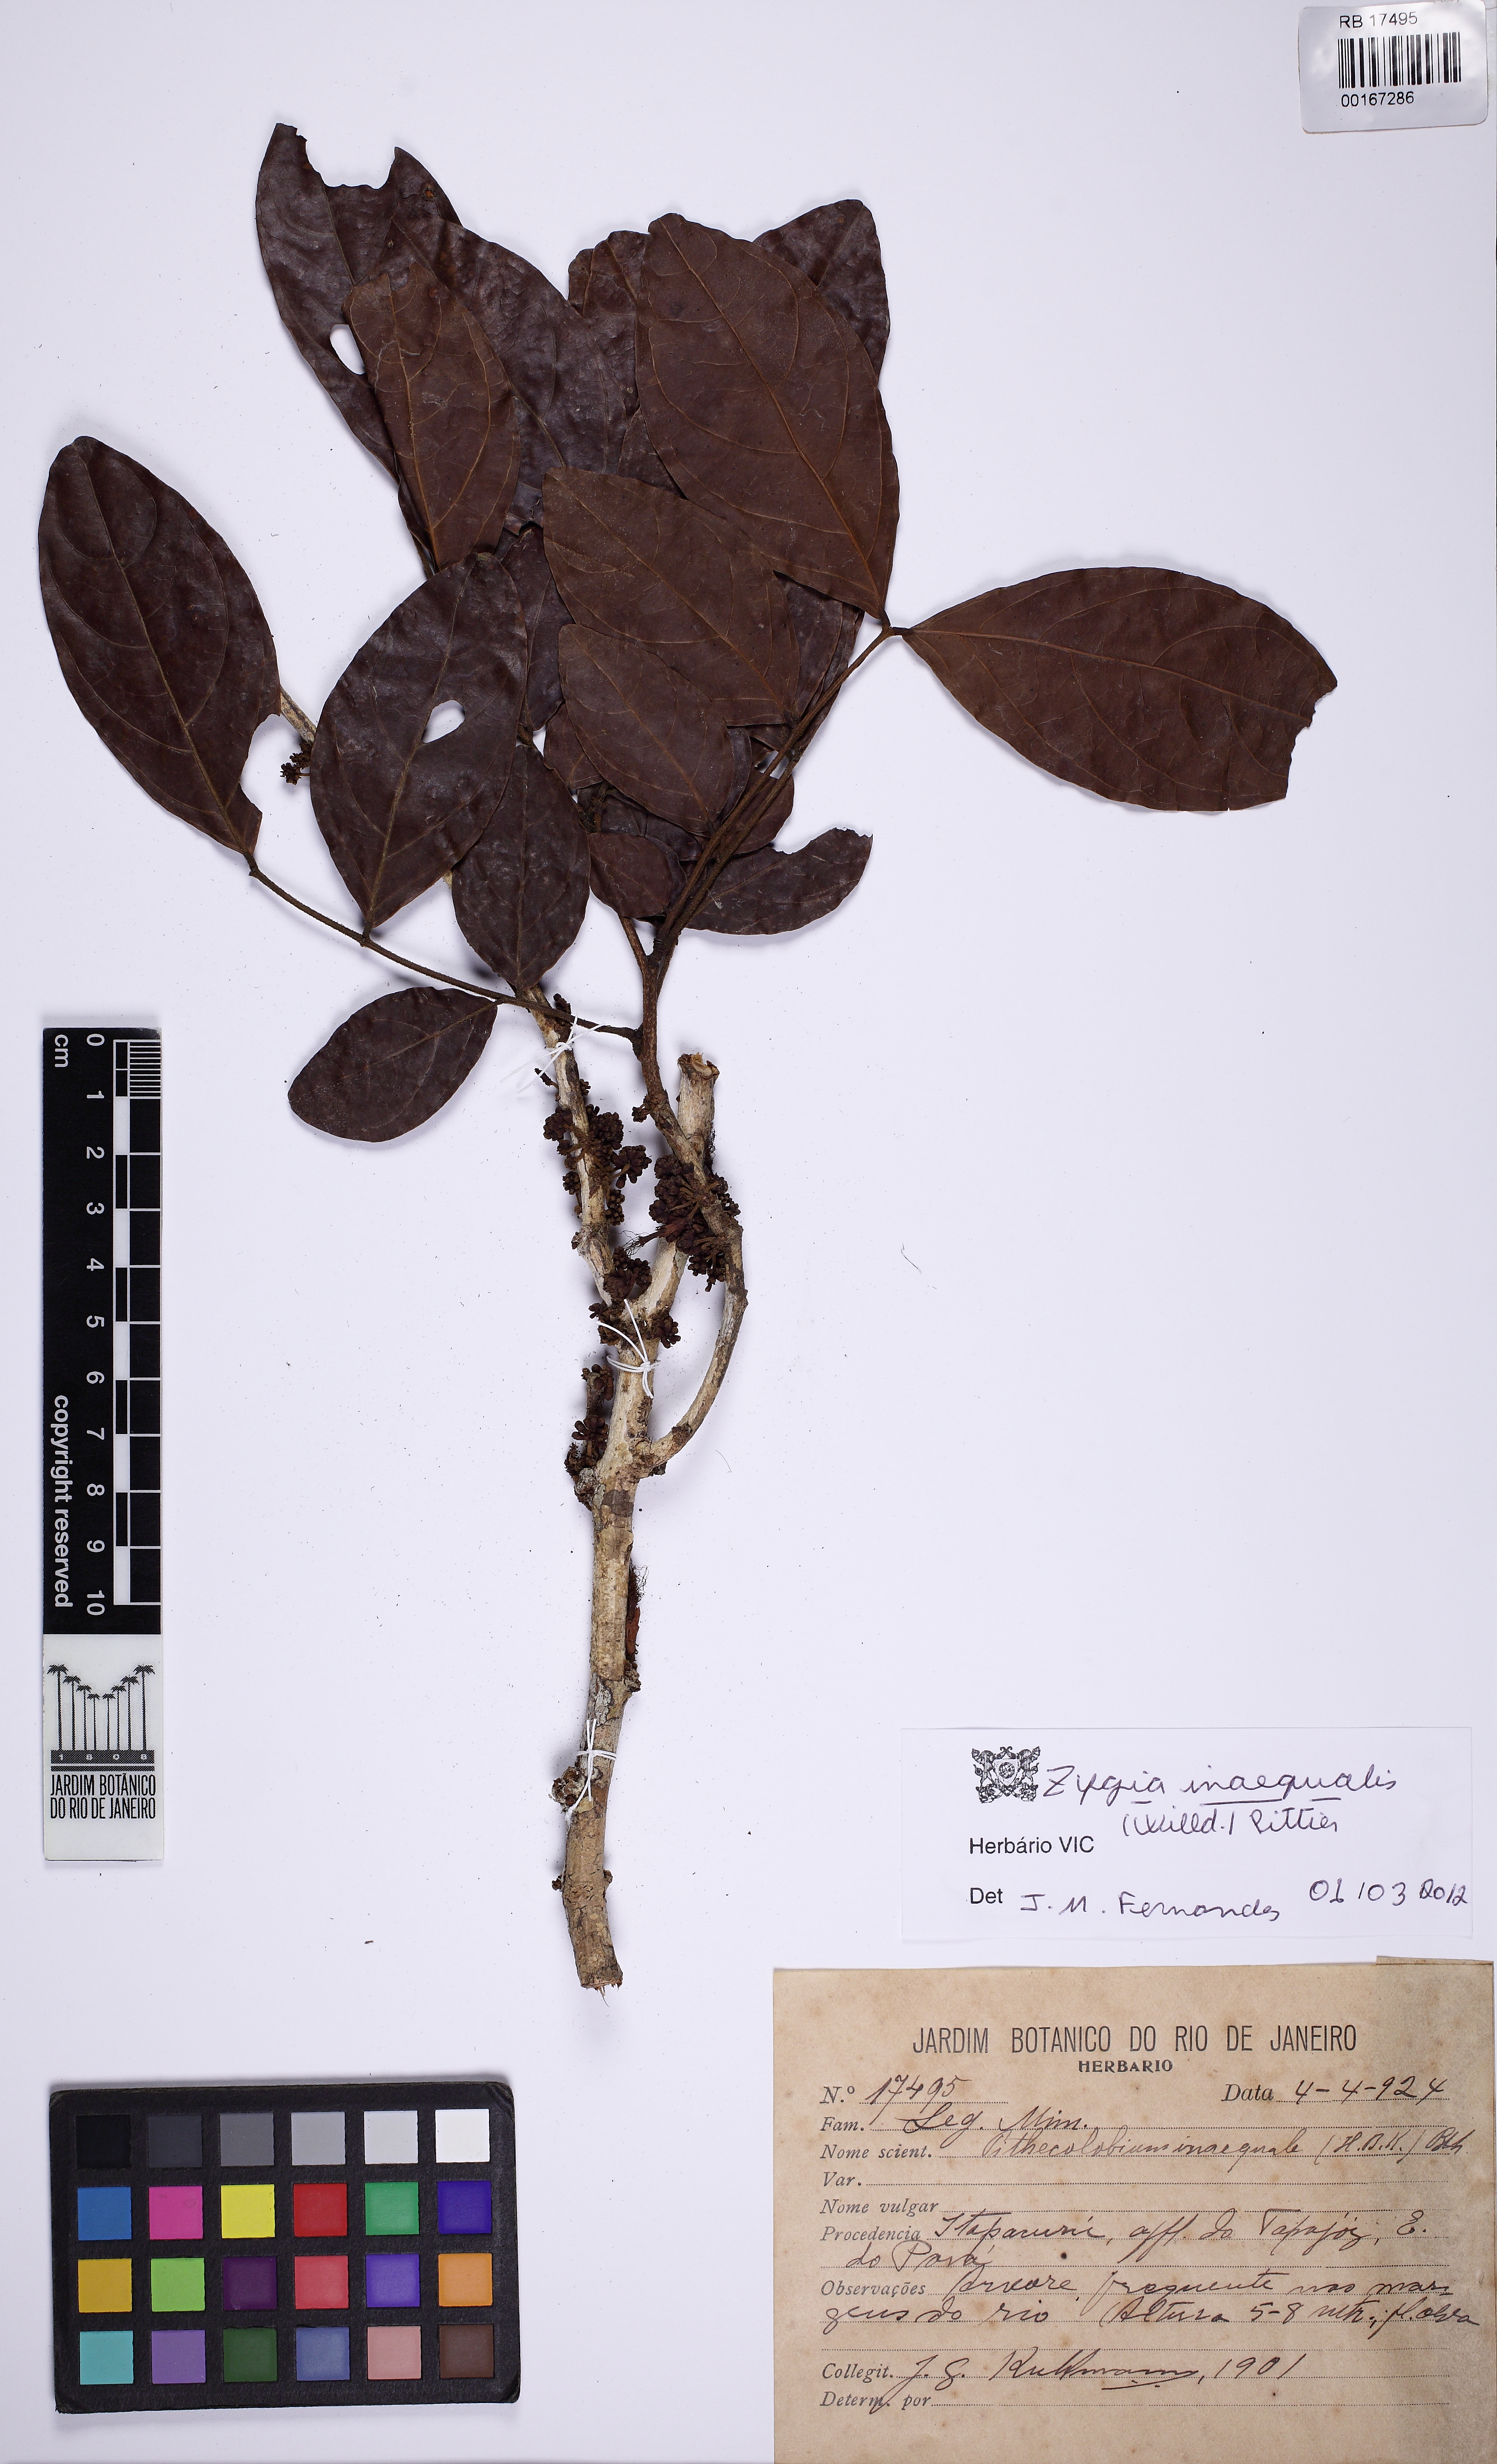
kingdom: Plantae
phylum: Tracheophyta
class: Magnoliopsida
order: Fabales
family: Fabaceae
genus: Zygia
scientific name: Zygia inaequalis
